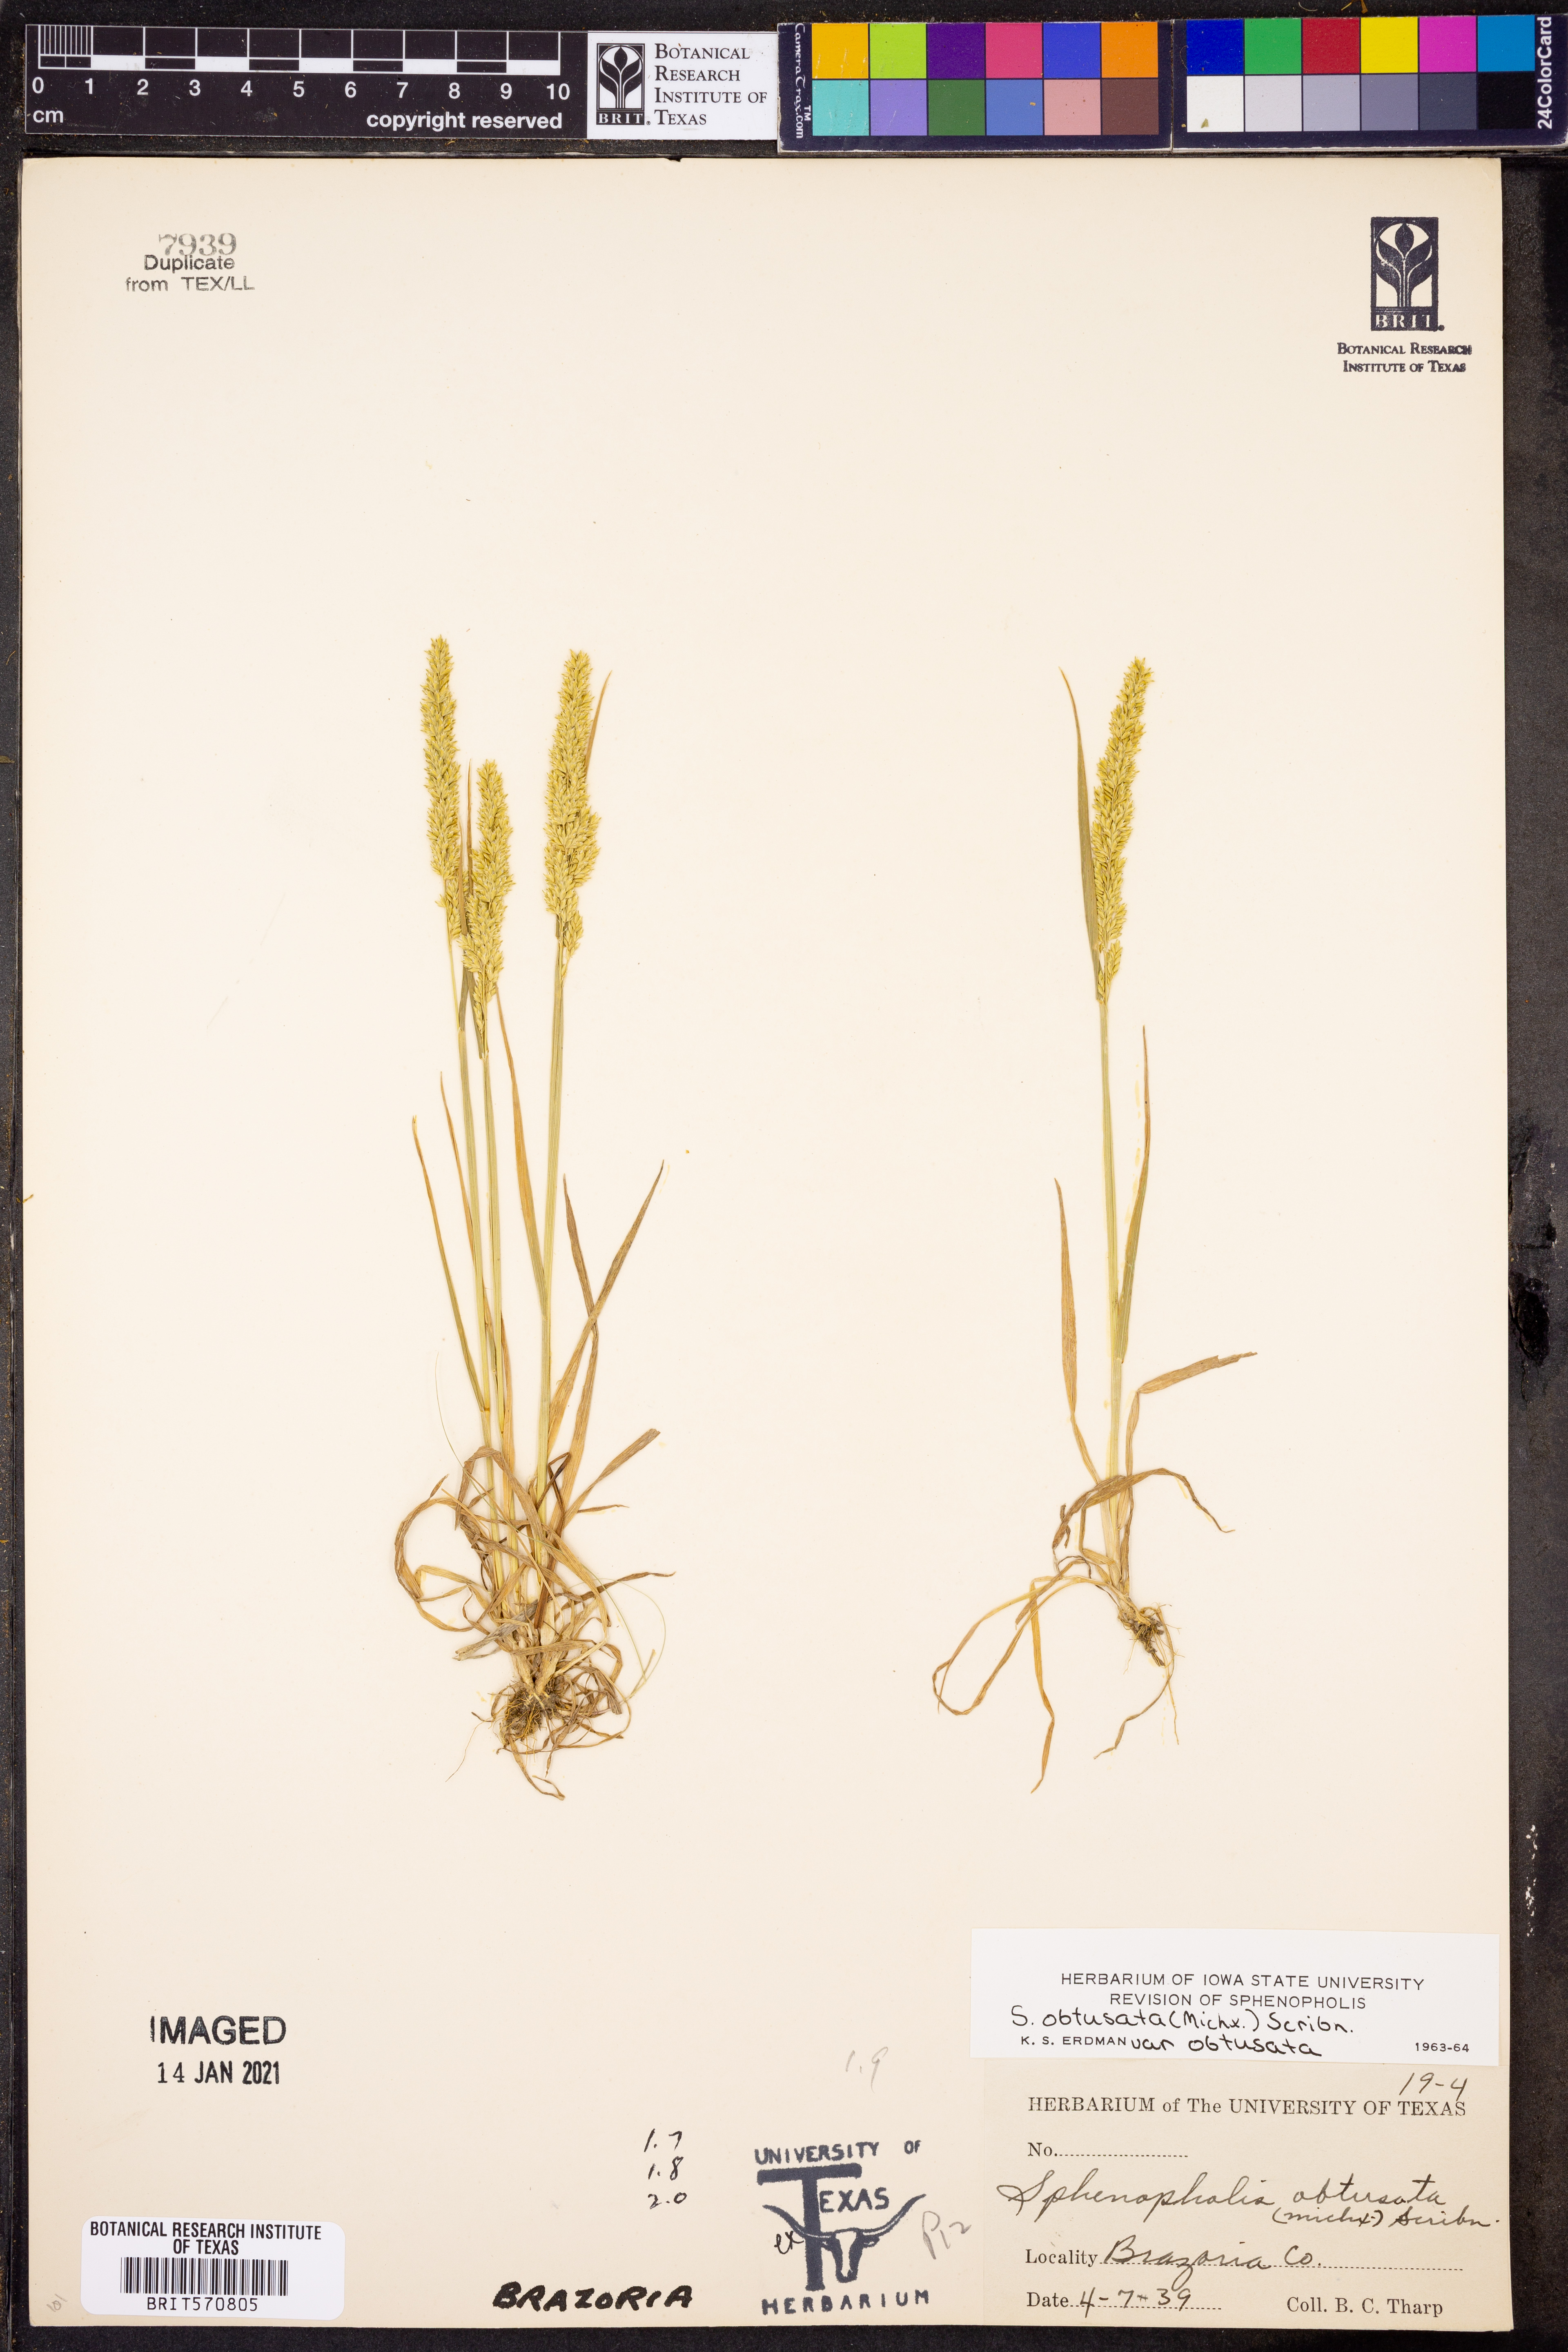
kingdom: Plantae
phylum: Tracheophyta
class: Liliopsida
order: Poales
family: Poaceae
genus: Sphenopholis
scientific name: Sphenopholis obtusata
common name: Prairie grass
